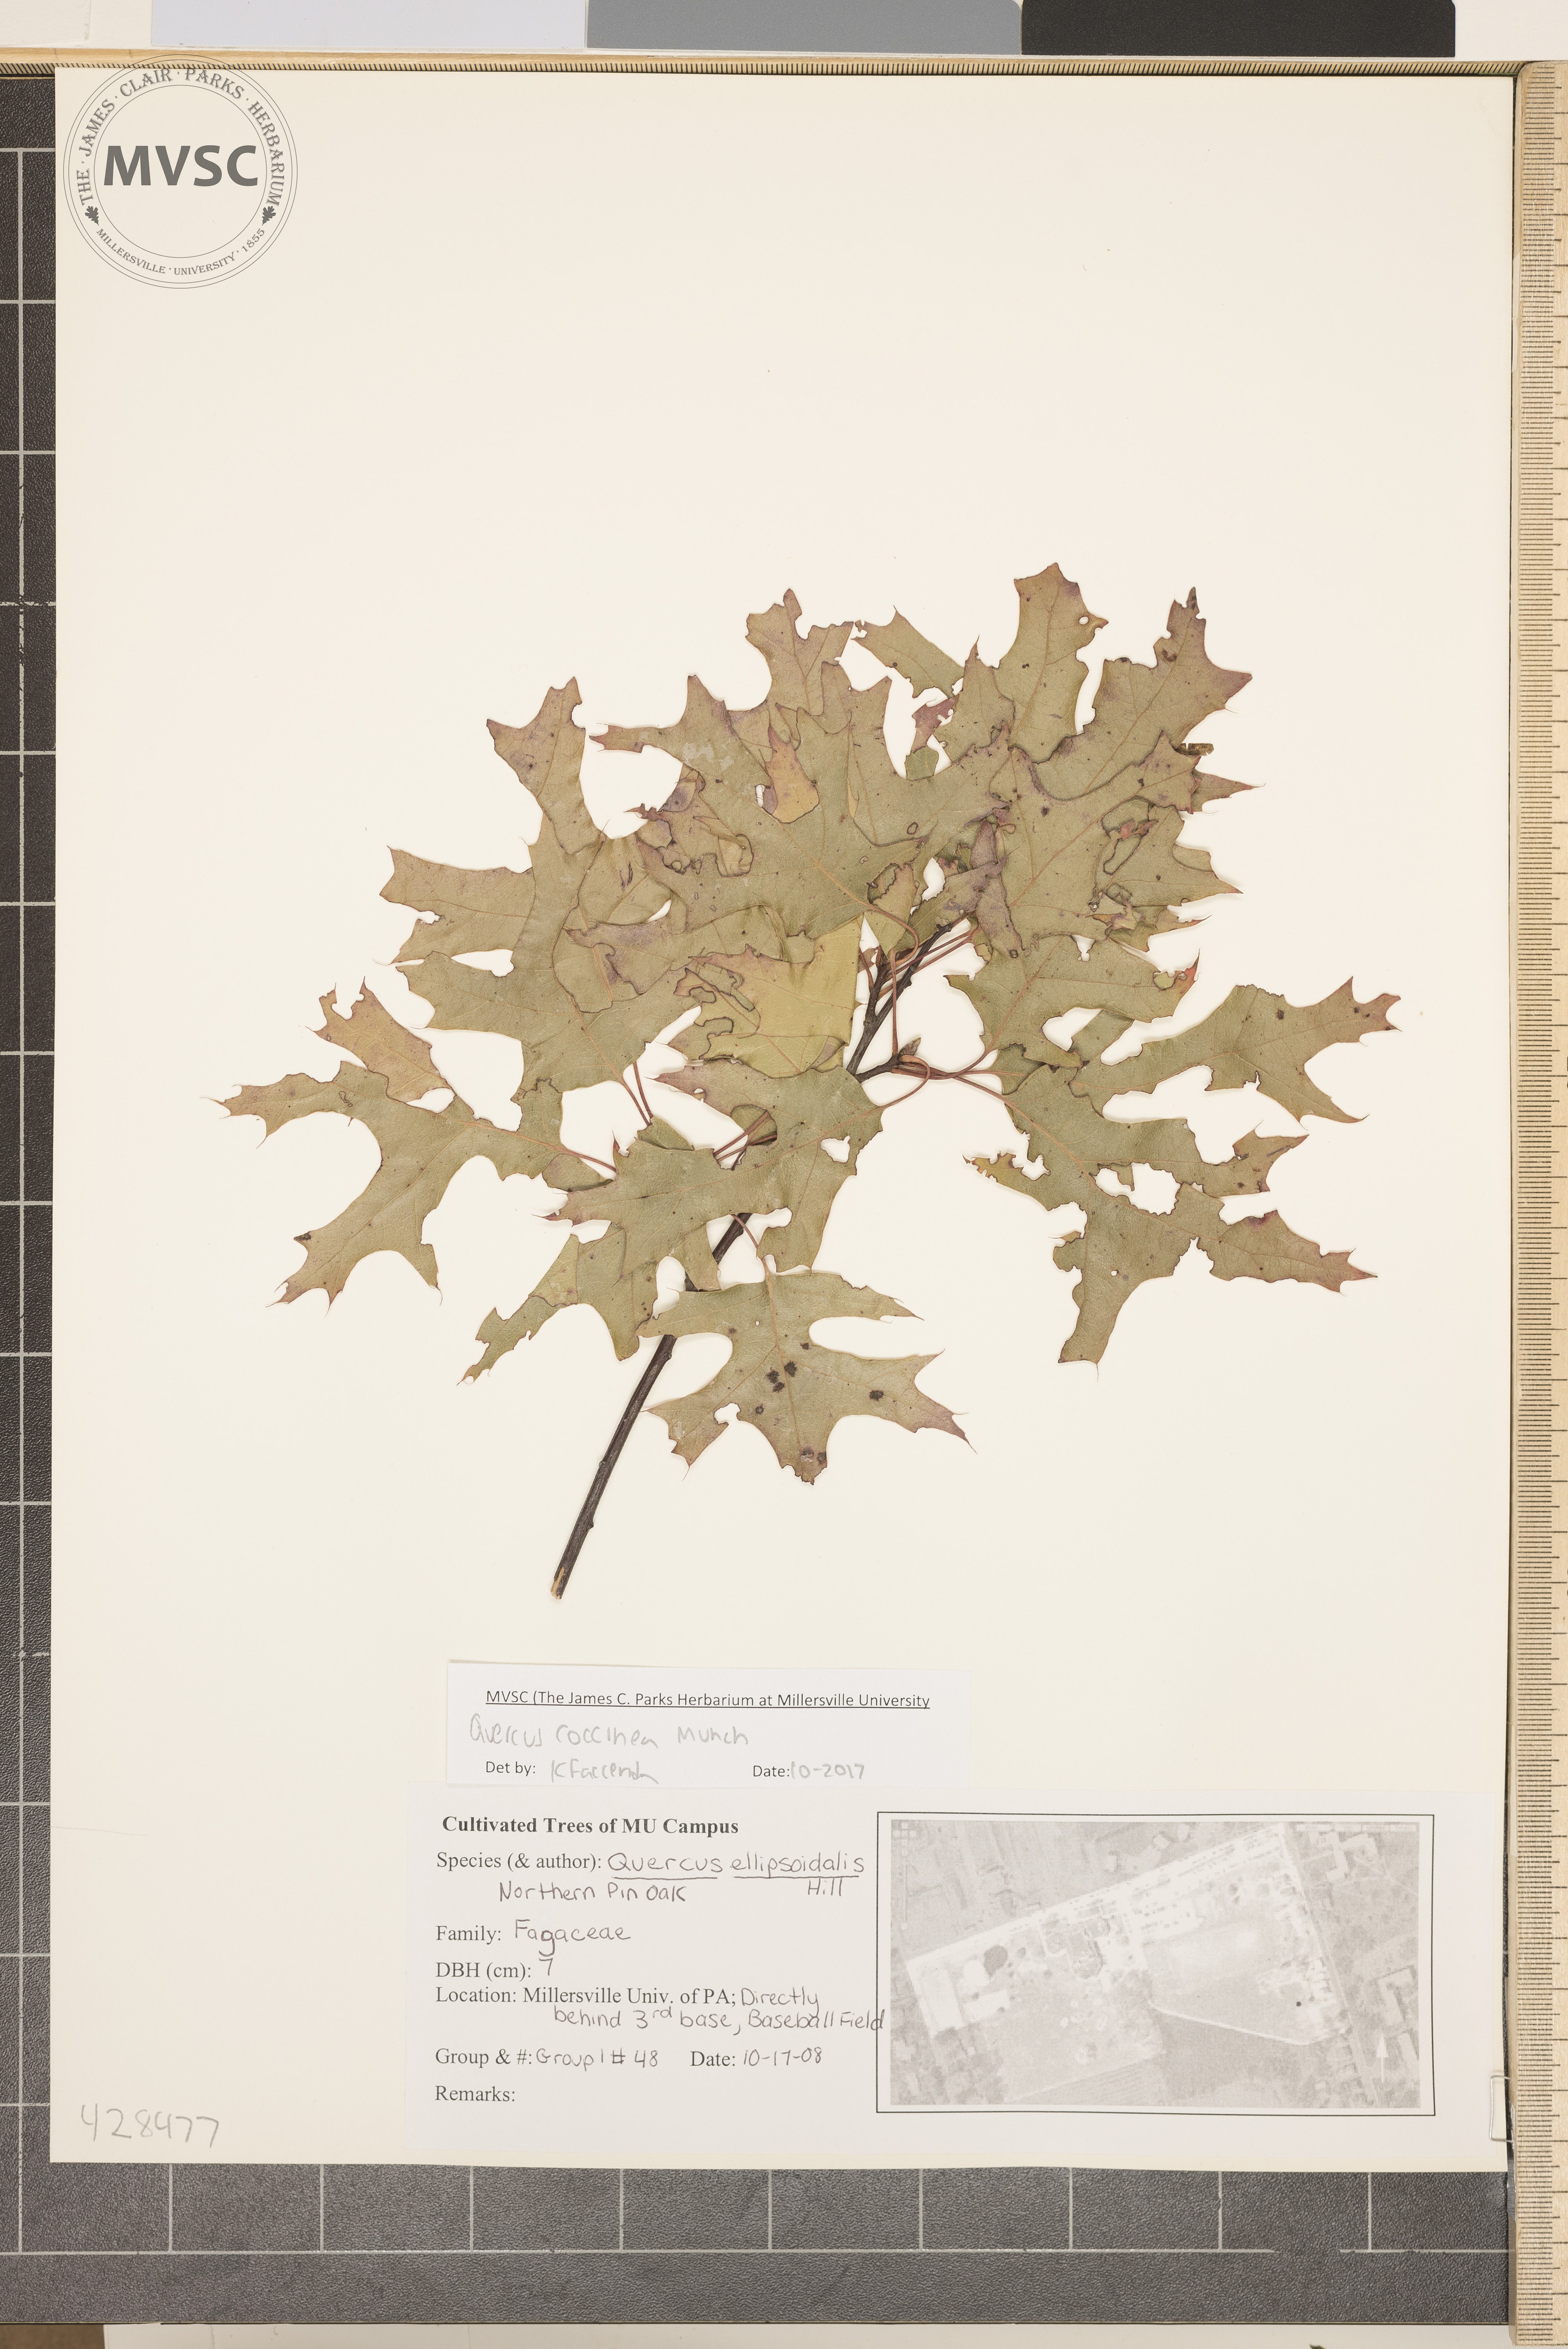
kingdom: Plantae
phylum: Tracheophyta
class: Magnoliopsida
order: Fagales
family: Fagaceae
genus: Quercus
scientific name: Quercus coccinea
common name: Scarlet oak
